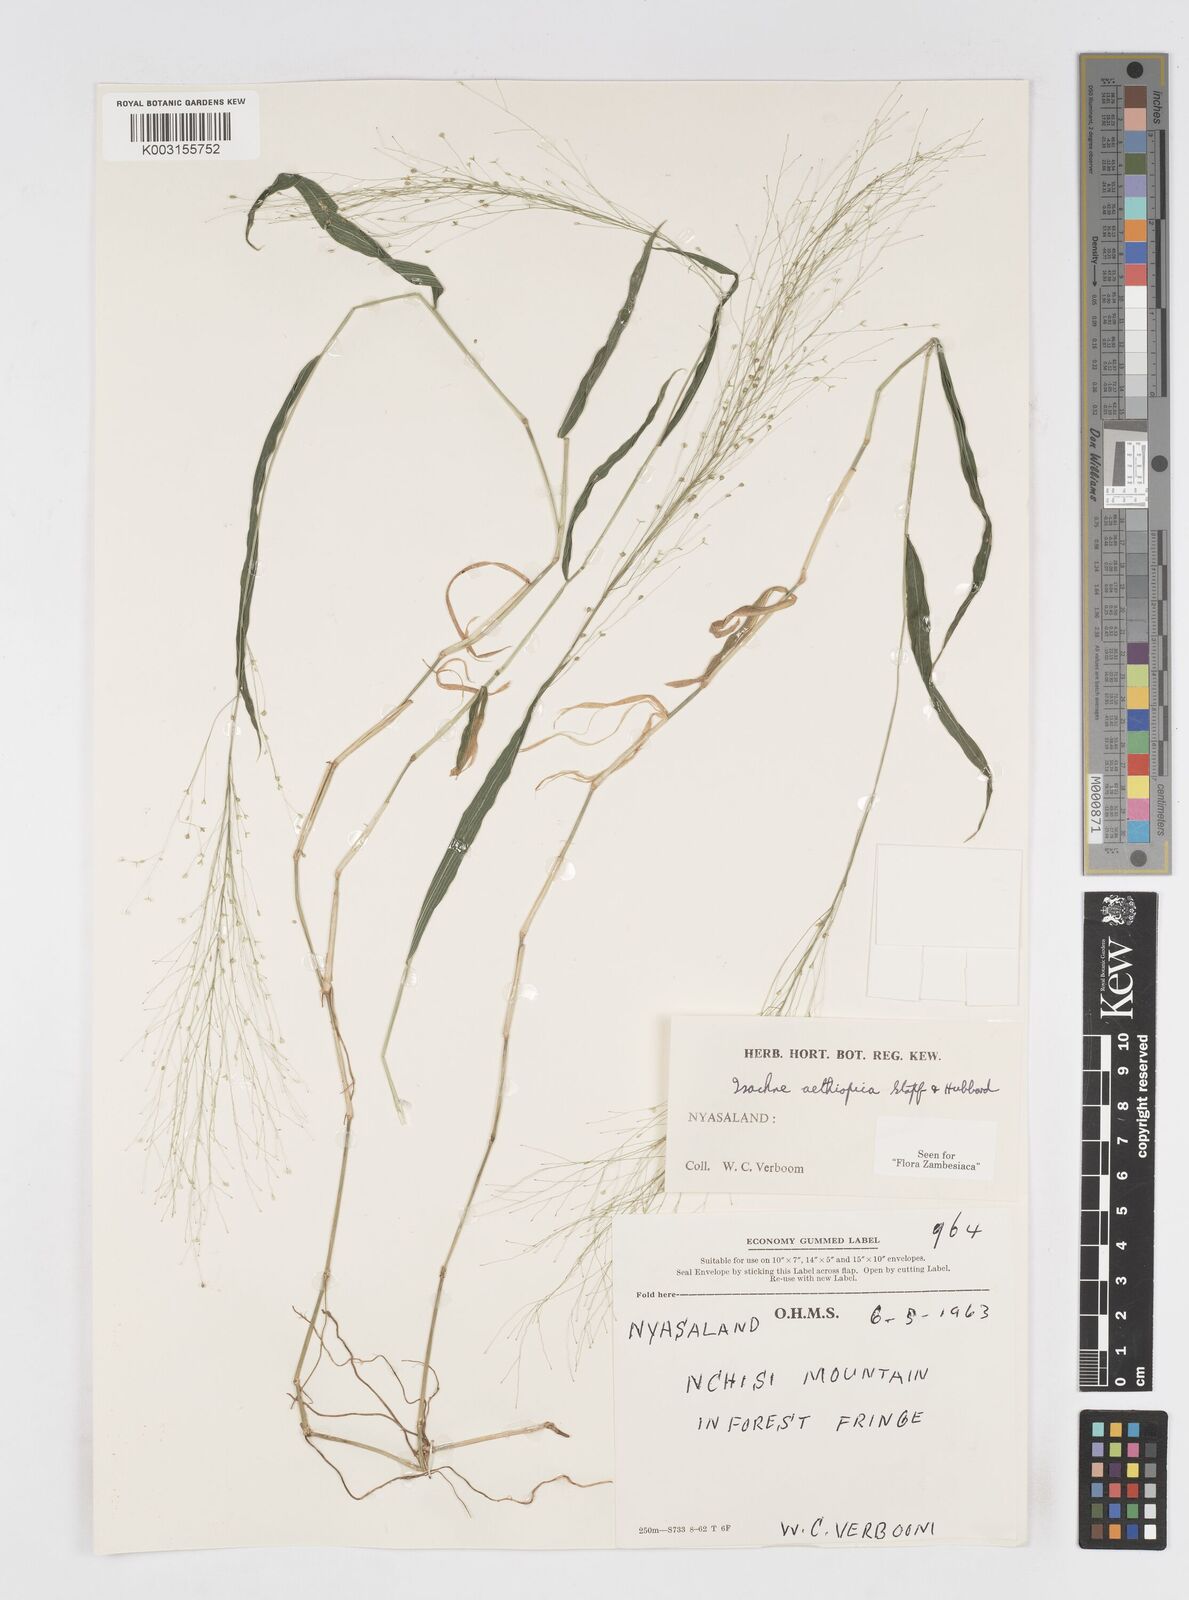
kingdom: Plantae
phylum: Tracheophyta
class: Liliopsida
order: Poales
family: Poaceae
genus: Isachne
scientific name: Isachne mauritiana
